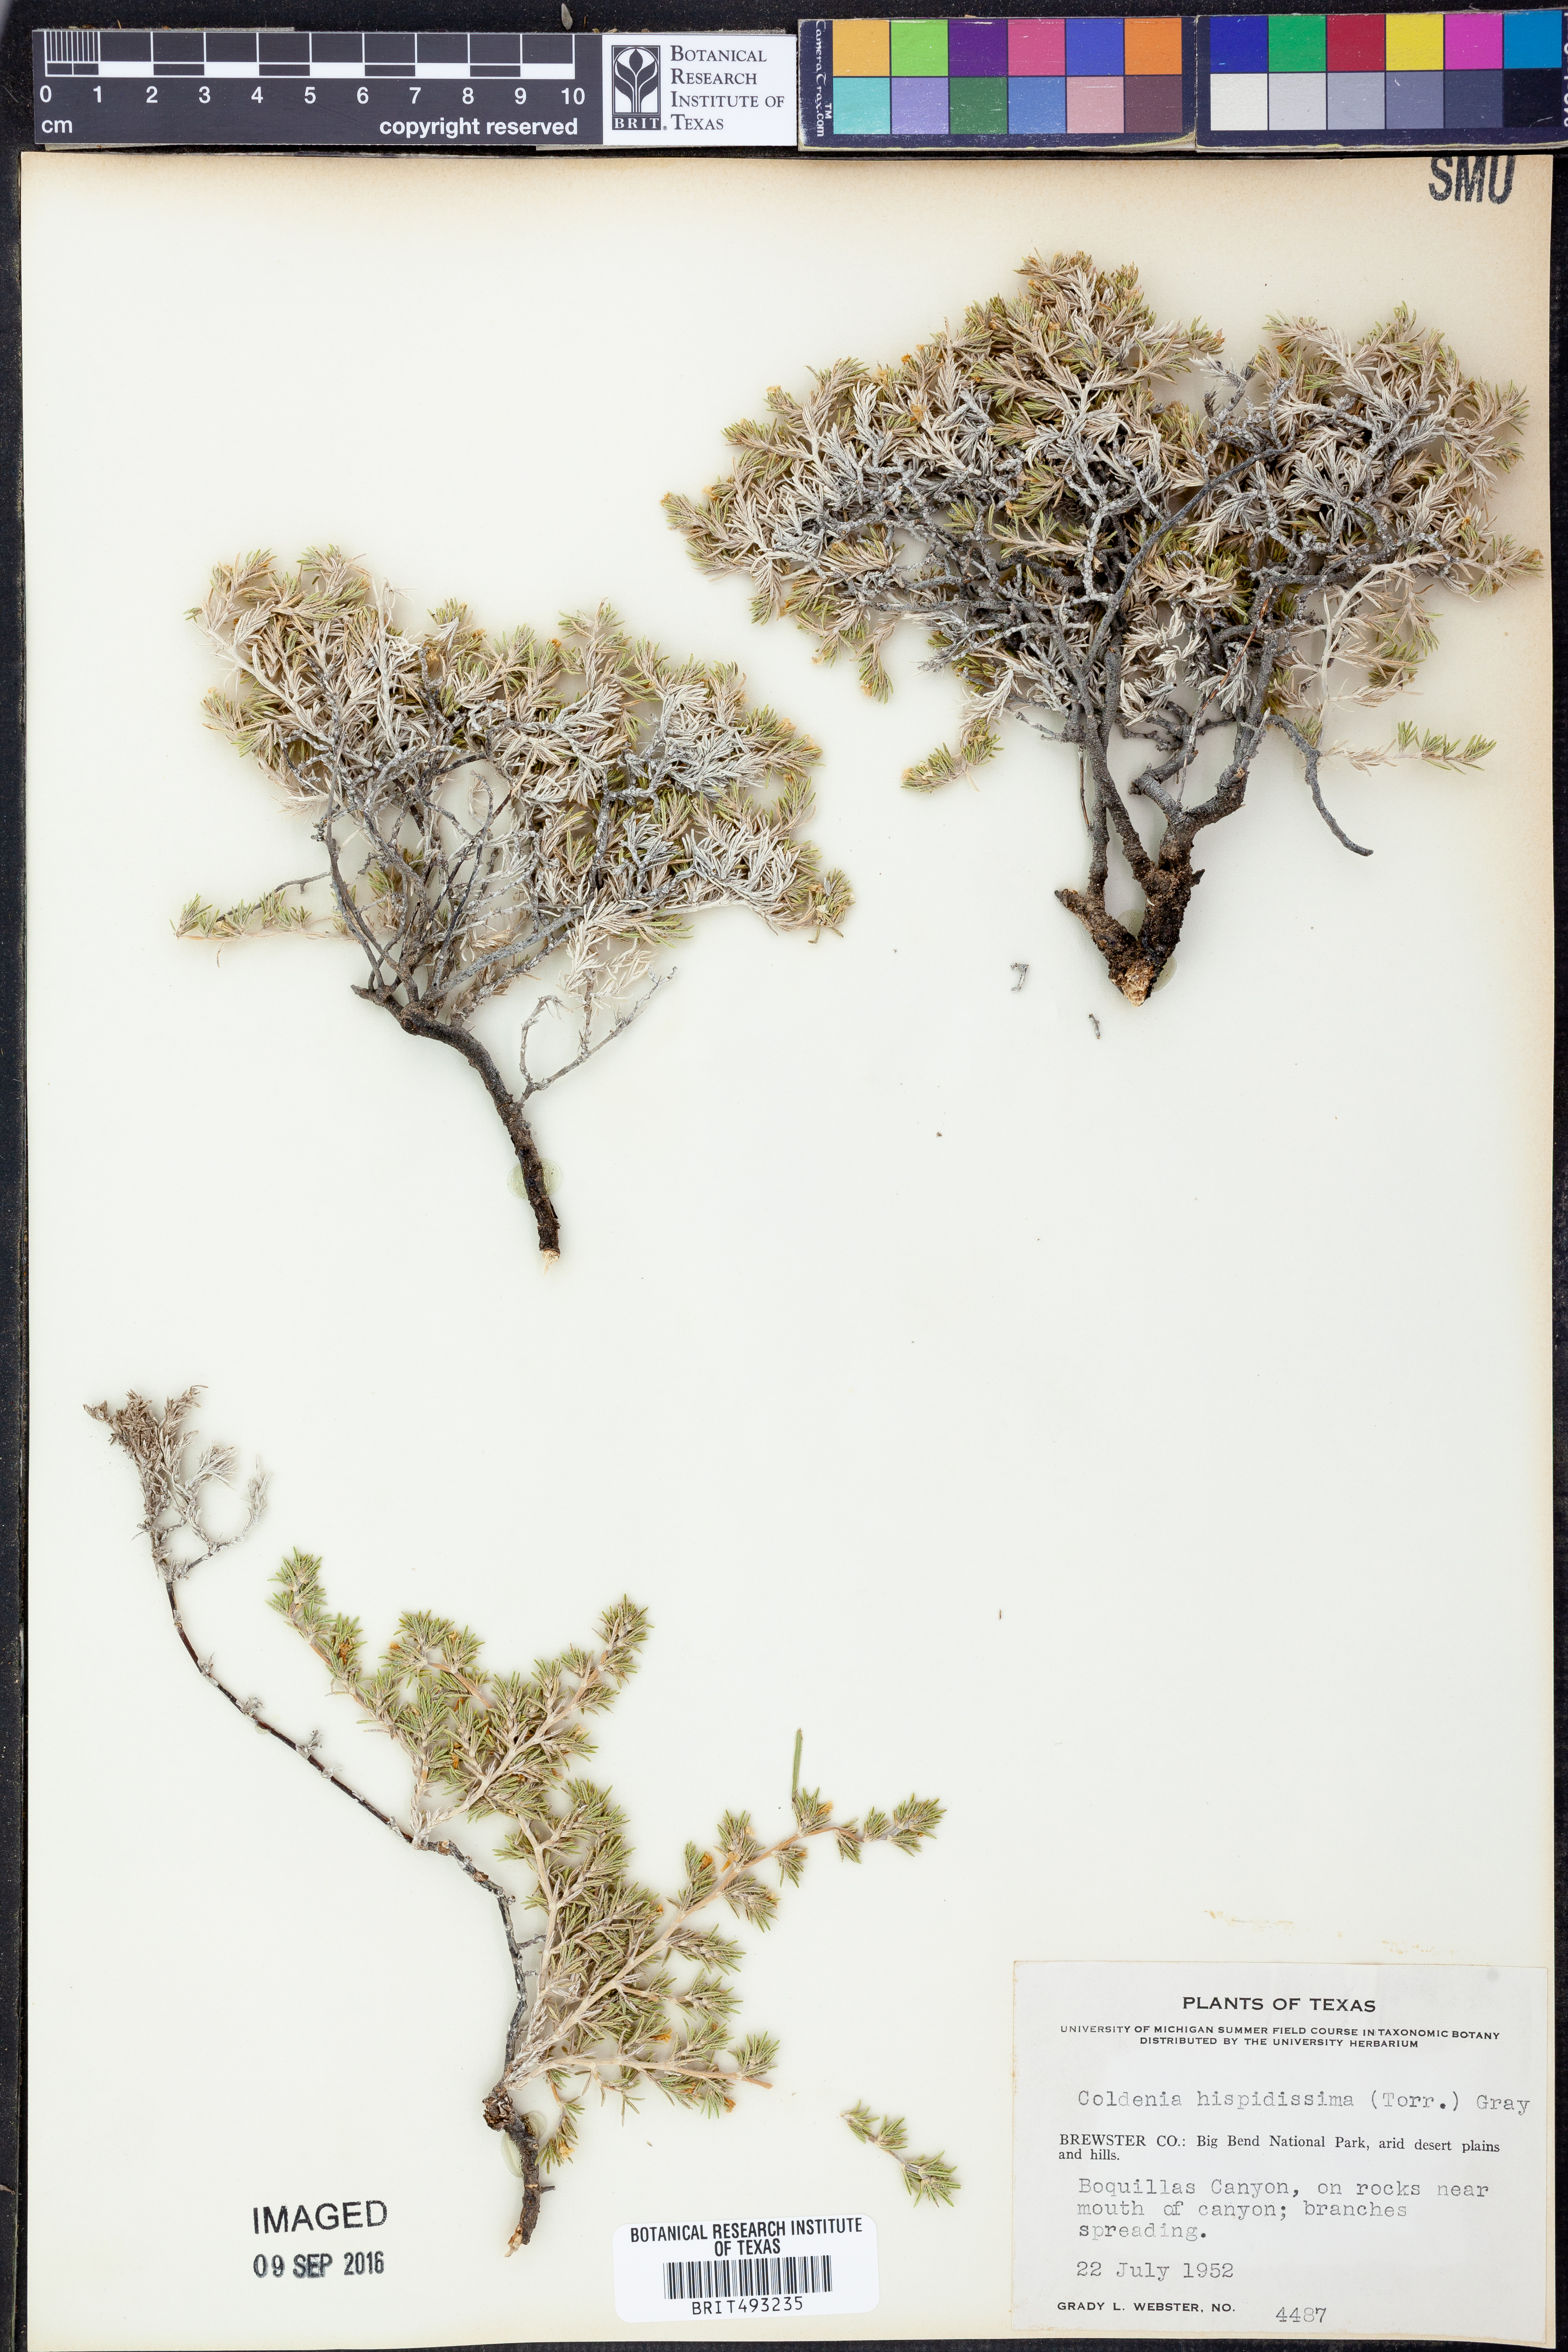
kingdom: Plantae
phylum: Tracheophyta
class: Magnoliopsida
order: Boraginales
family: Ehretiaceae
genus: Tiquilia
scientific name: Tiquilia hispidissima
